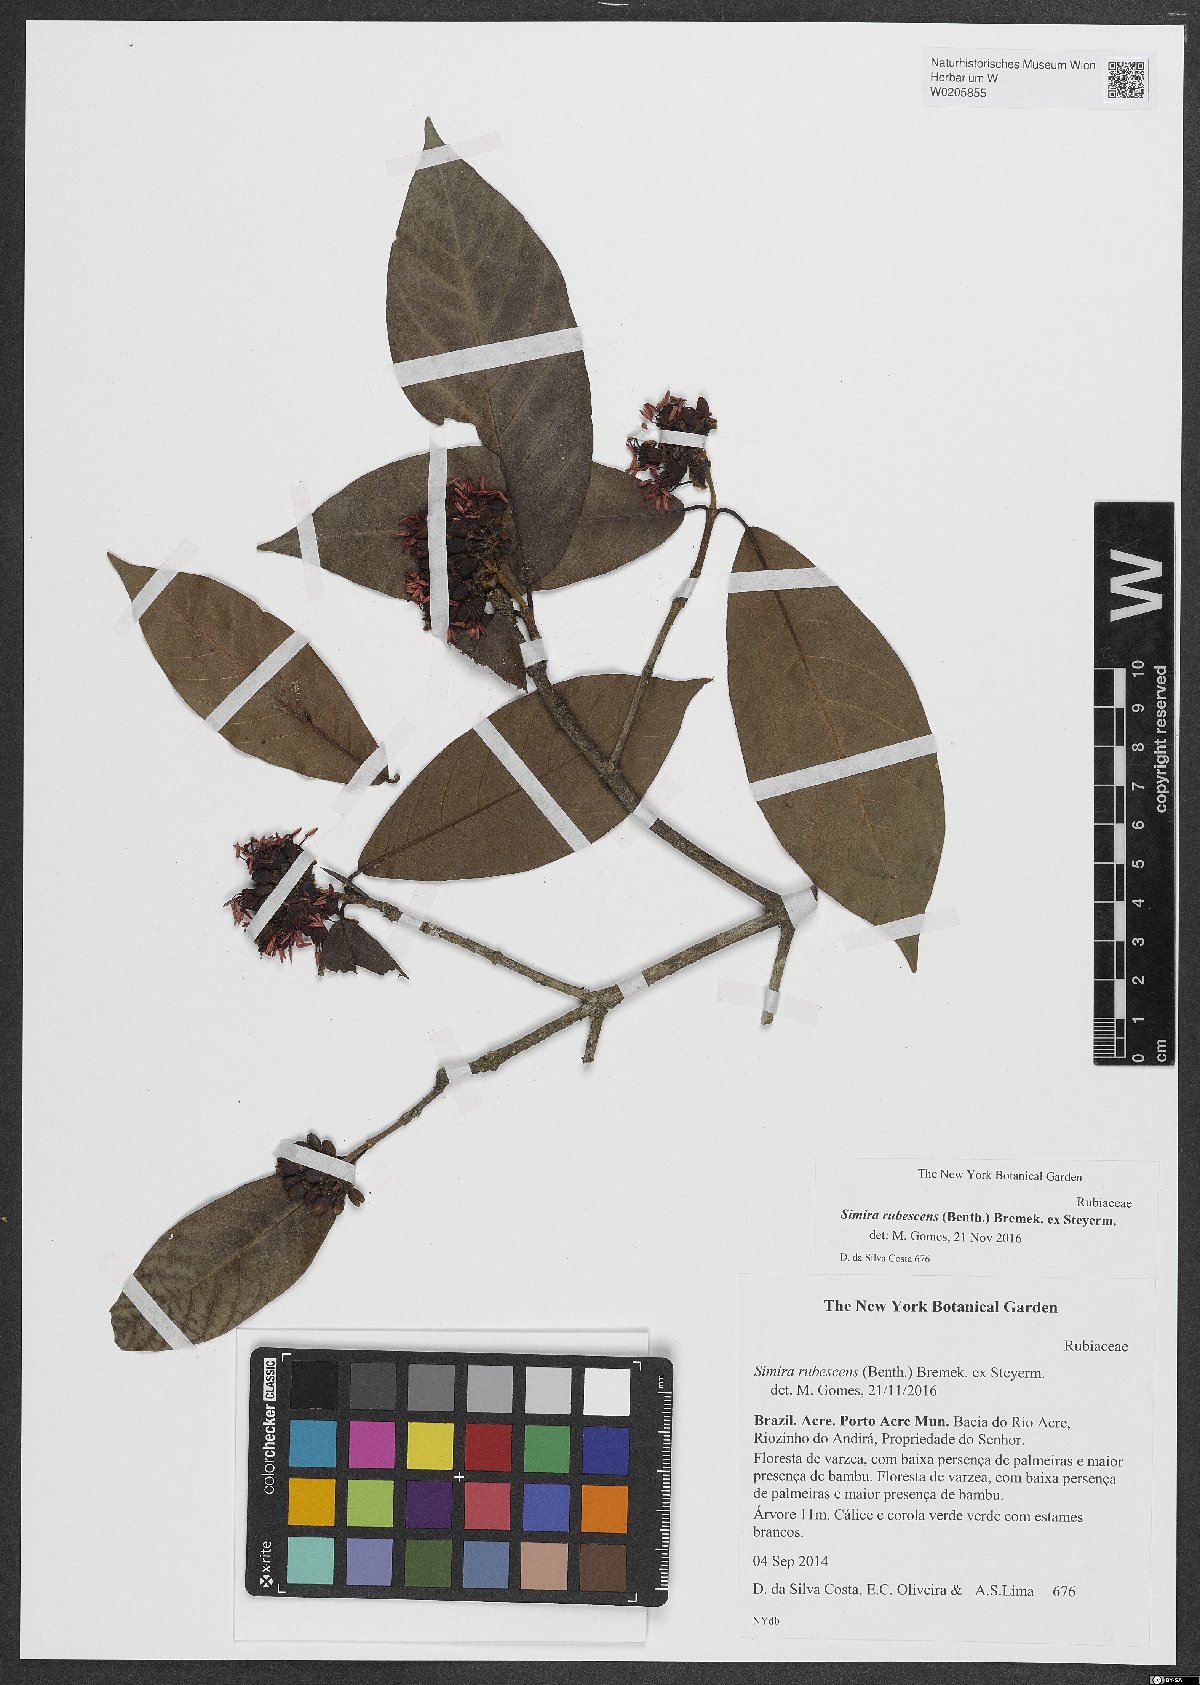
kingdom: Plantae
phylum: Tracheophyta
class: Magnoliopsida
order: Gentianales
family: Rubiaceae
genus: Simira
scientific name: Simira rubescens
